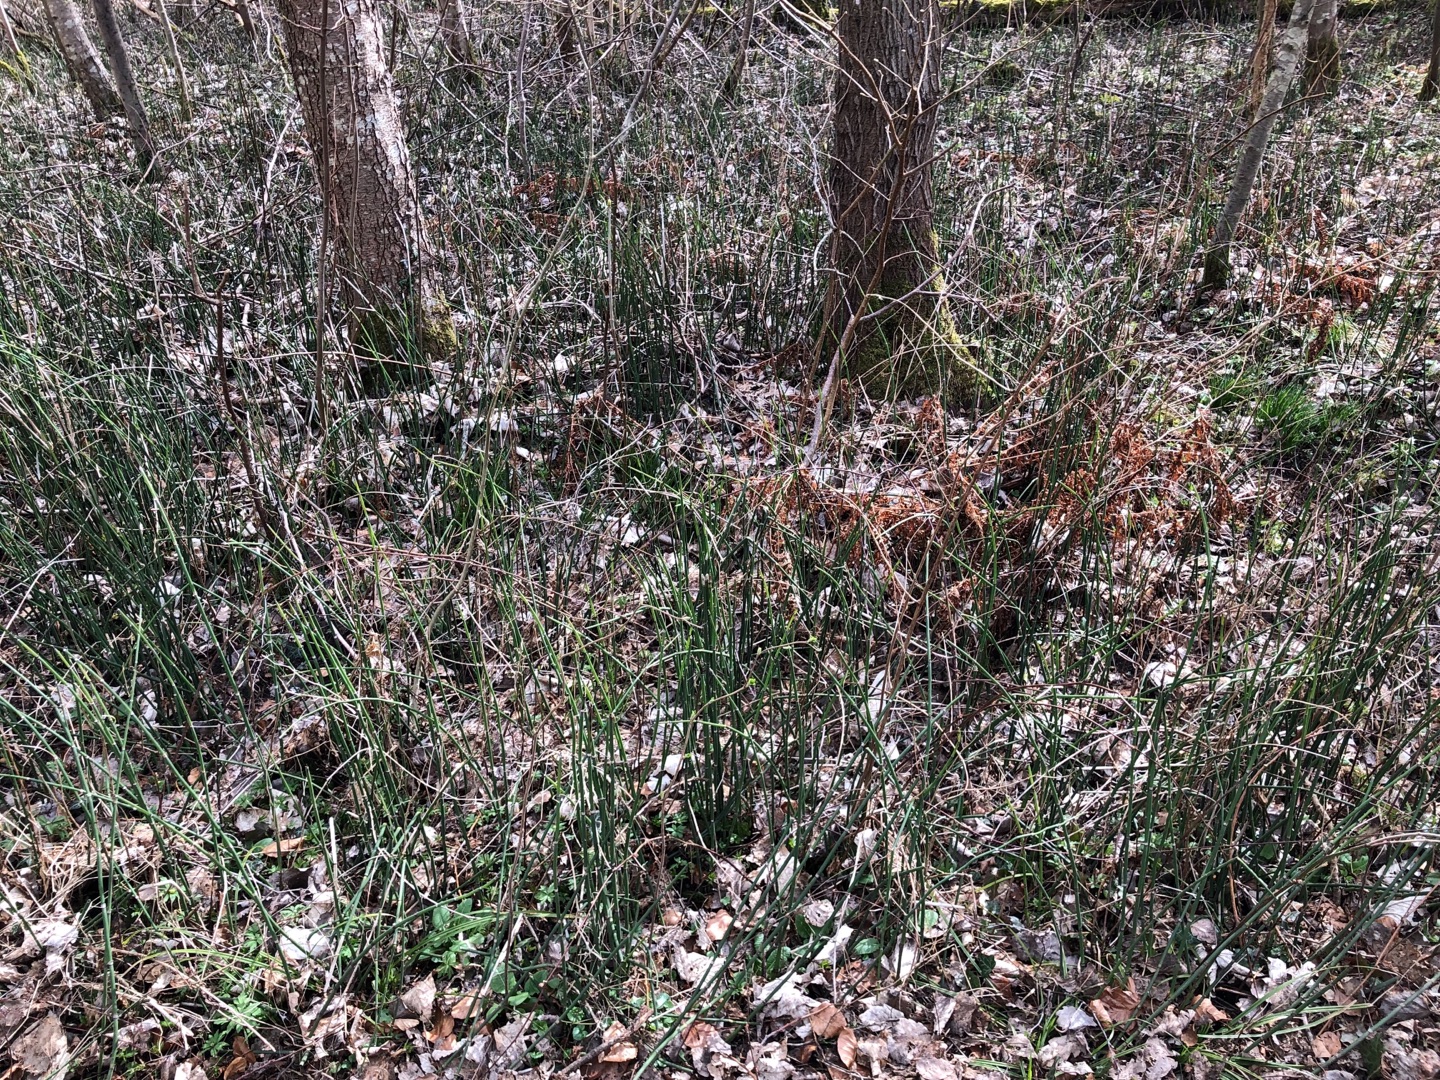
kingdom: Plantae
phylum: Tracheophyta
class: Polypodiopsida
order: Equisetales
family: Equisetaceae
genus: Equisetum
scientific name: Equisetum hyemale
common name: Skavgræs
